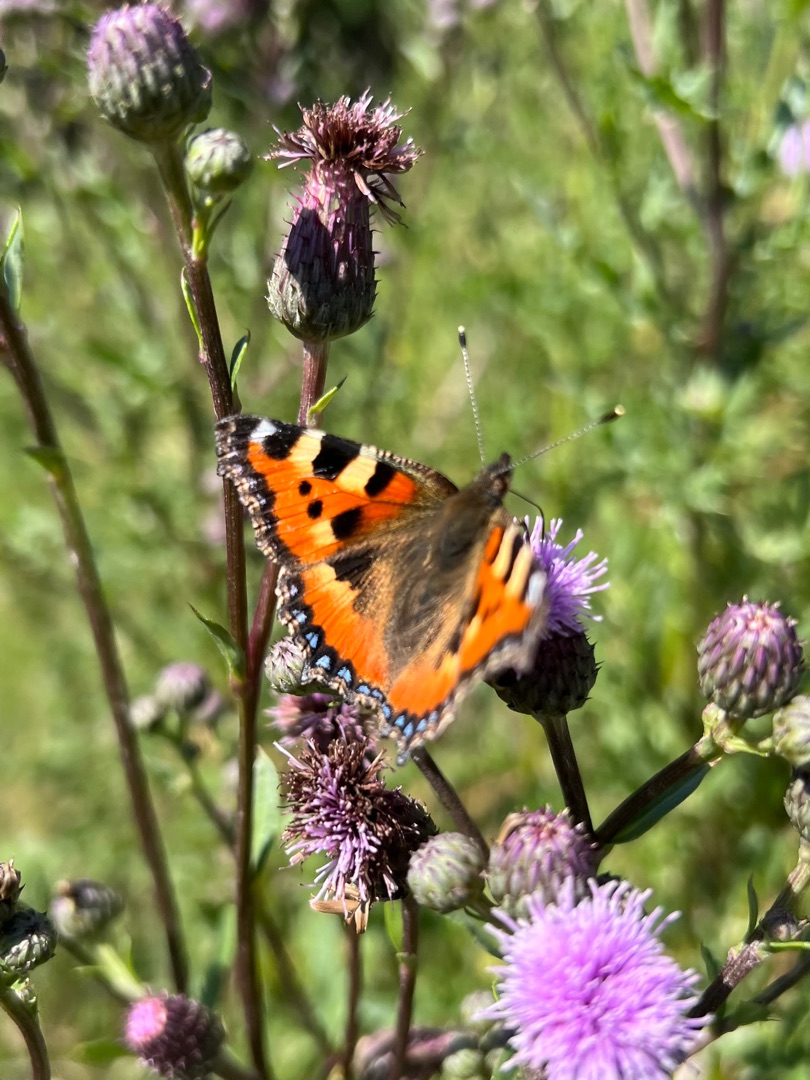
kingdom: Animalia
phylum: Arthropoda
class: Insecta
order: Lepidoptera
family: Nymphalidae
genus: Aglais
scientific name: Aglais urticae
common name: Nældens takvinge
